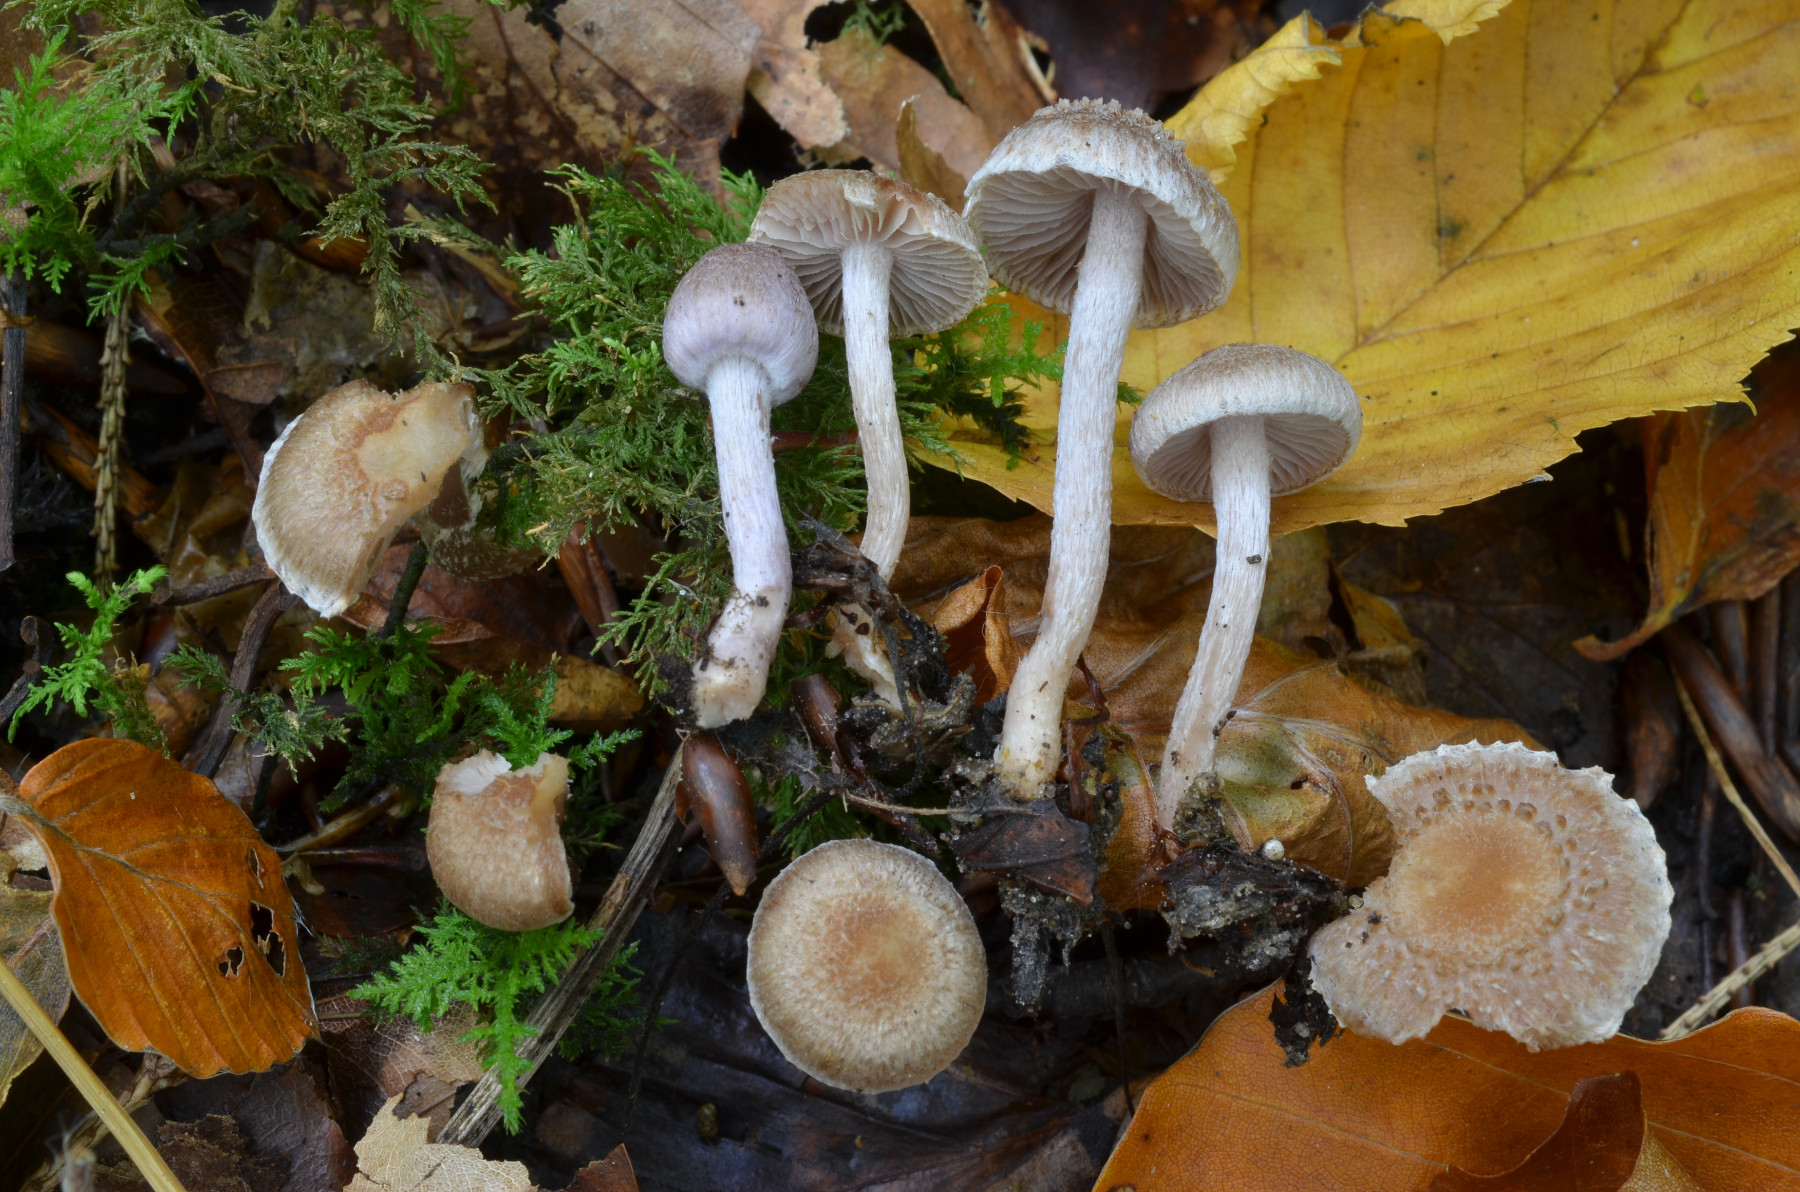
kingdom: Fungi
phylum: Basidiomycota
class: Agaricomycetes
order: Agaricales
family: Inocybaceae
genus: Inocybe
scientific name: Inocybe griseolilacina
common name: lillagrå trævlhat
